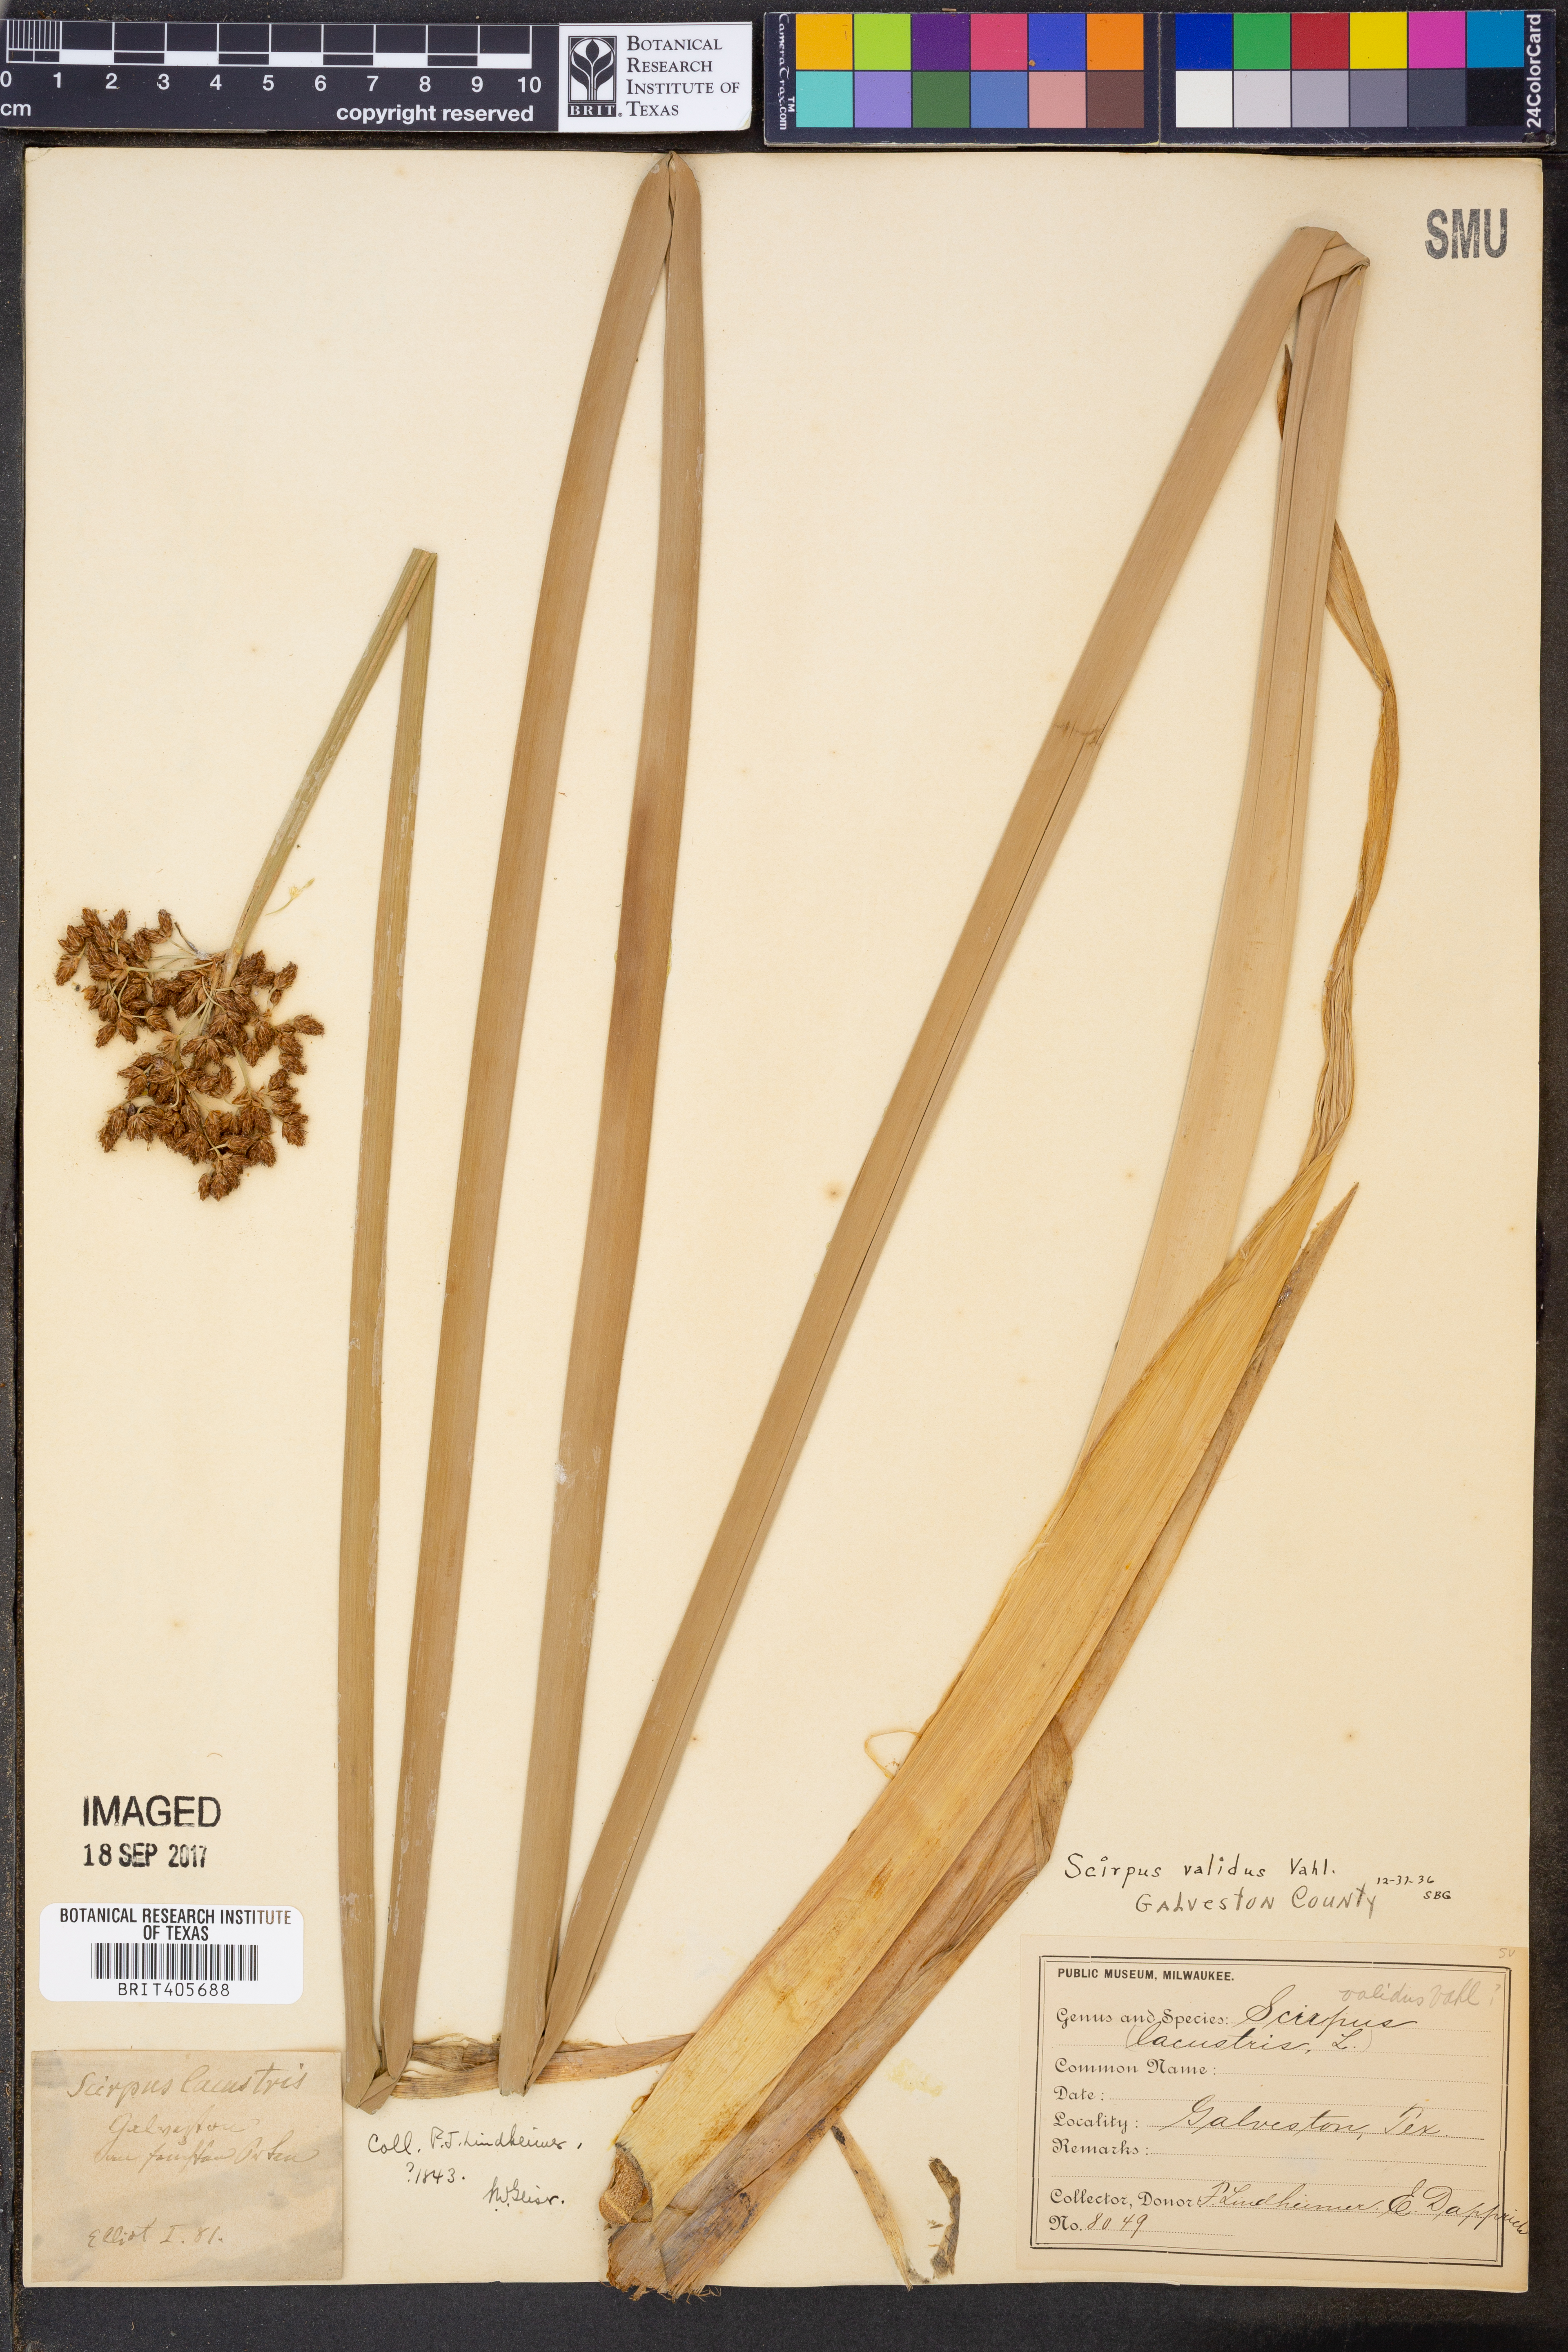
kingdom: Plantae
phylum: Tracheophyta
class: Liliopsida
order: Poales
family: Cyperaceae
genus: Schoenoplectus
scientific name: Schoenoplectus tabernaemontani
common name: Grey club-rush
